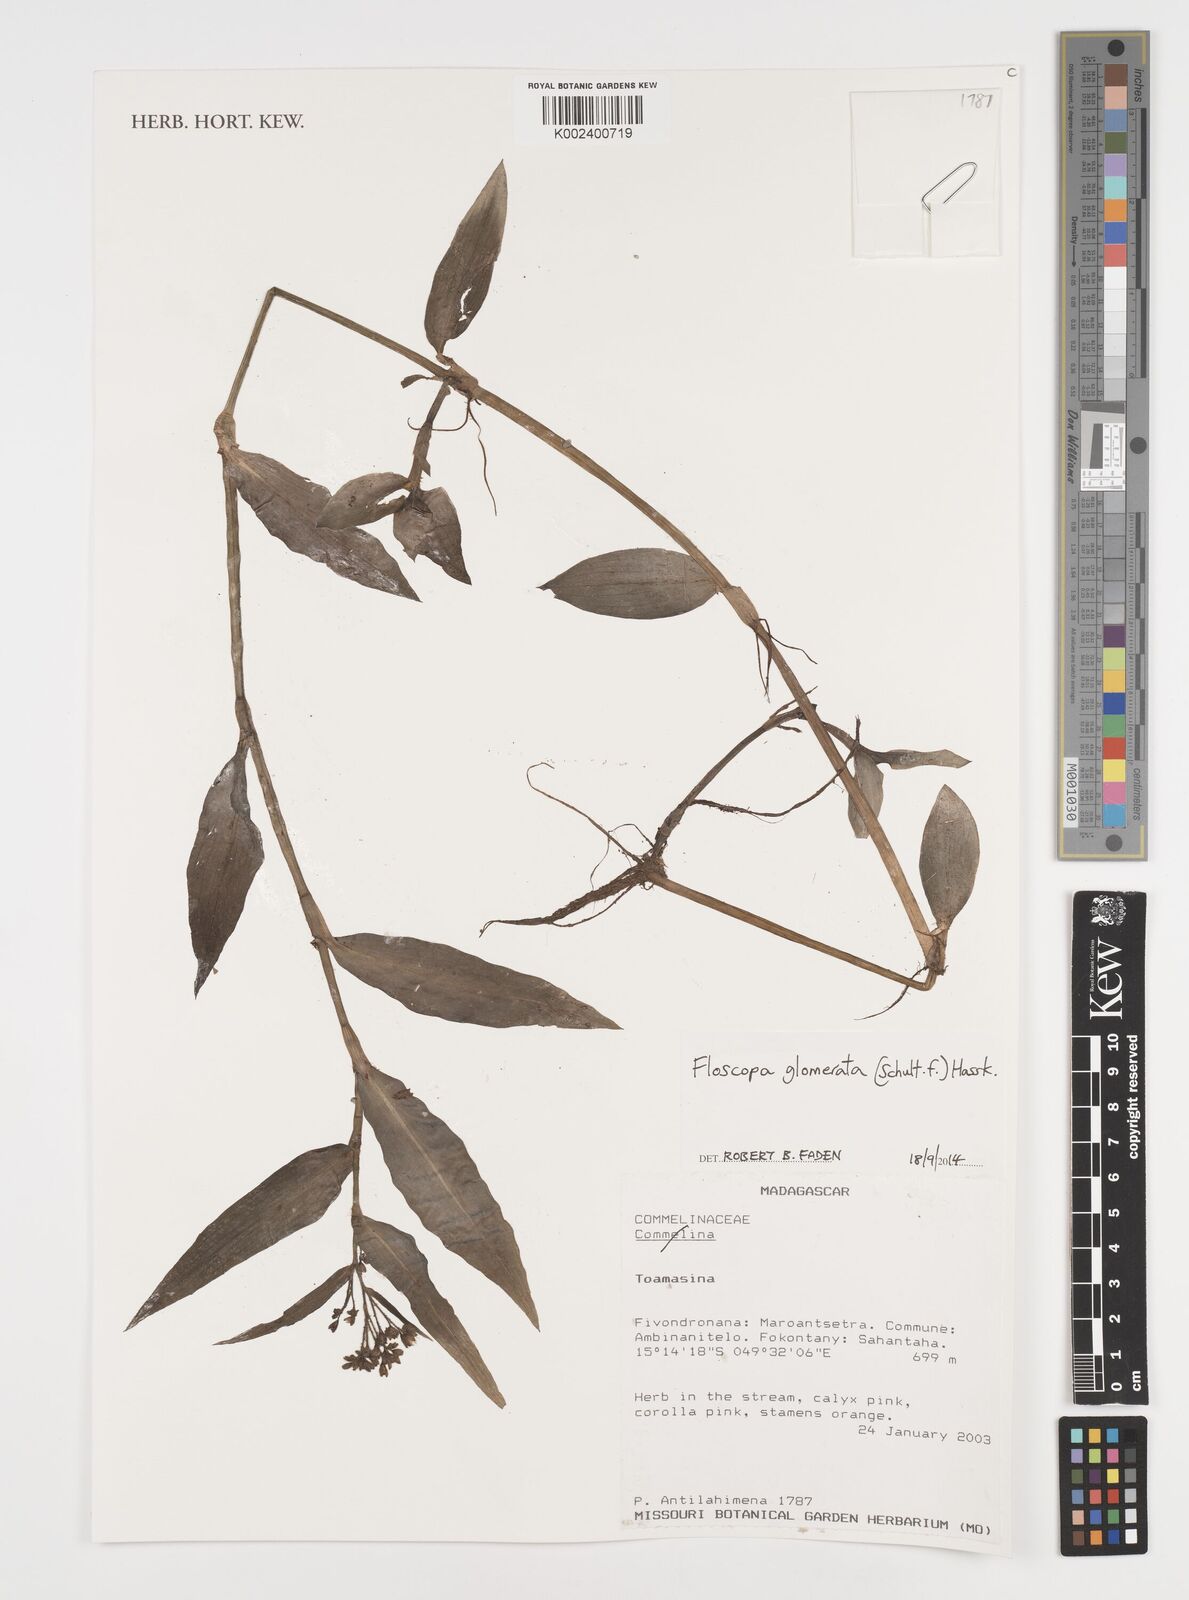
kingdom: Plantae
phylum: Tracheophyta
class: Liliopsida
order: Commelinales
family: Commelinaceae
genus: Floscopa
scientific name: Floscopa glomerata
